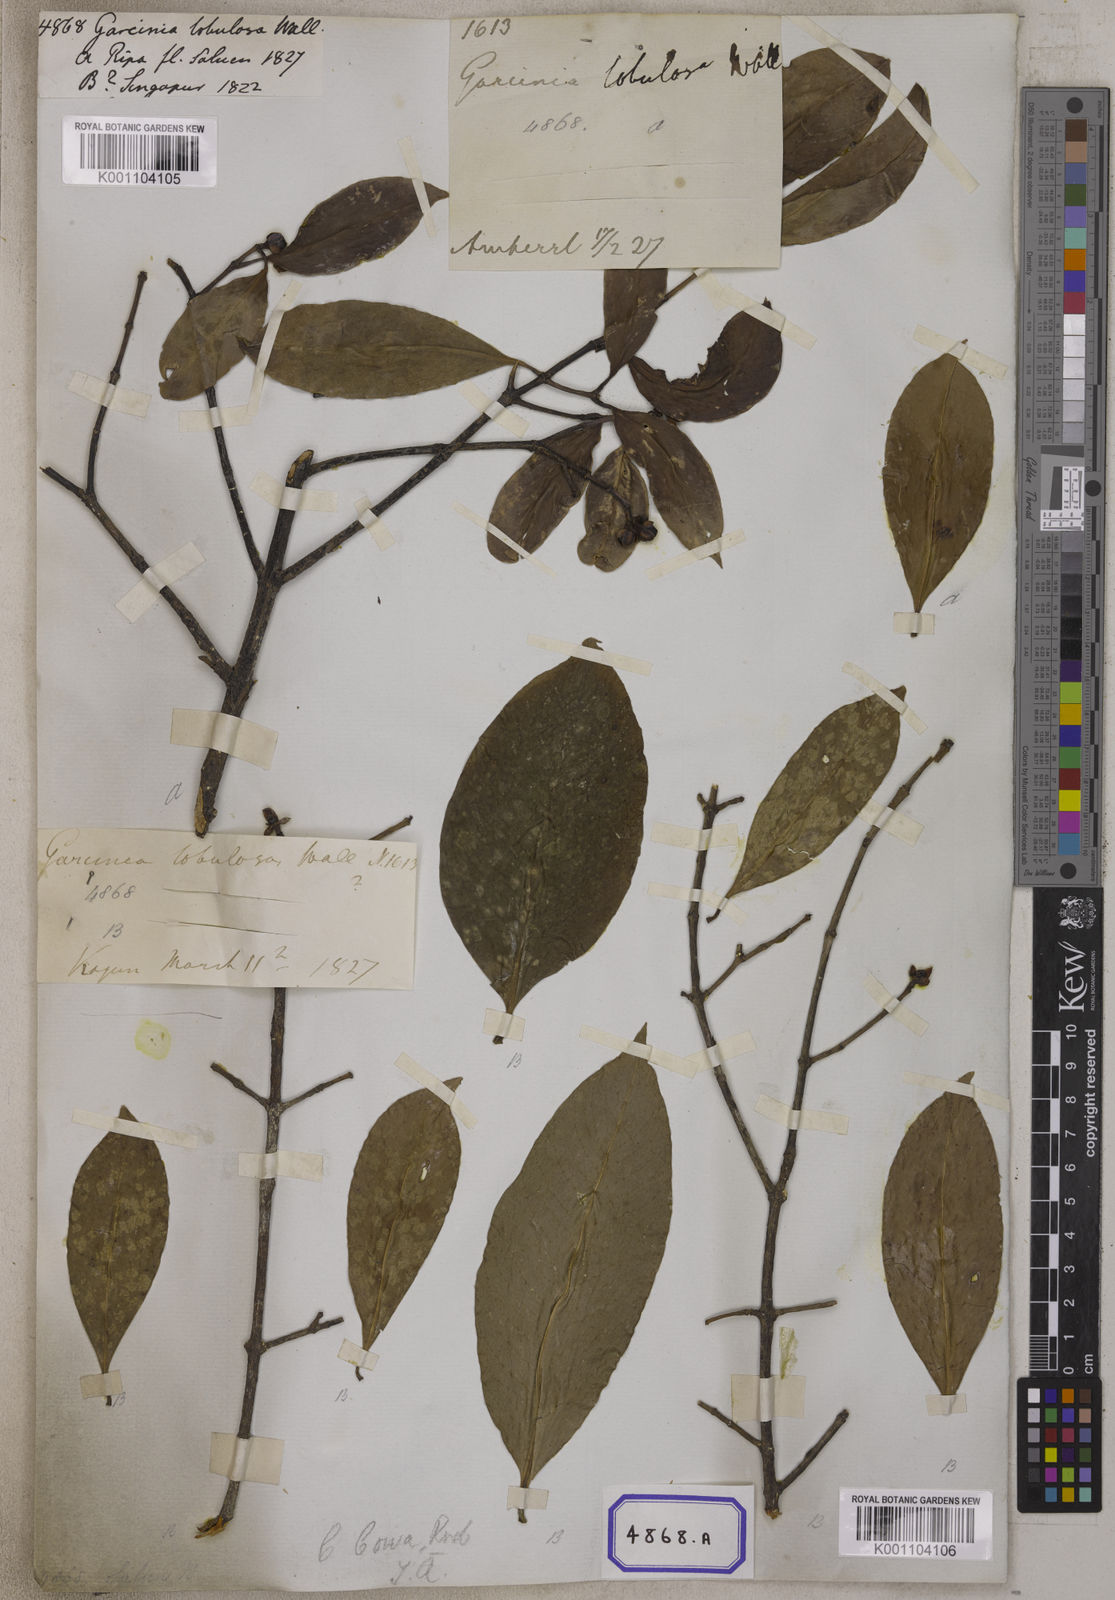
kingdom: Plantae
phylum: Tracheophyta
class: Magnoliopsida
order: Malpighiales
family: Clusiaceae
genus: Garcinia
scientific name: Garcinia
